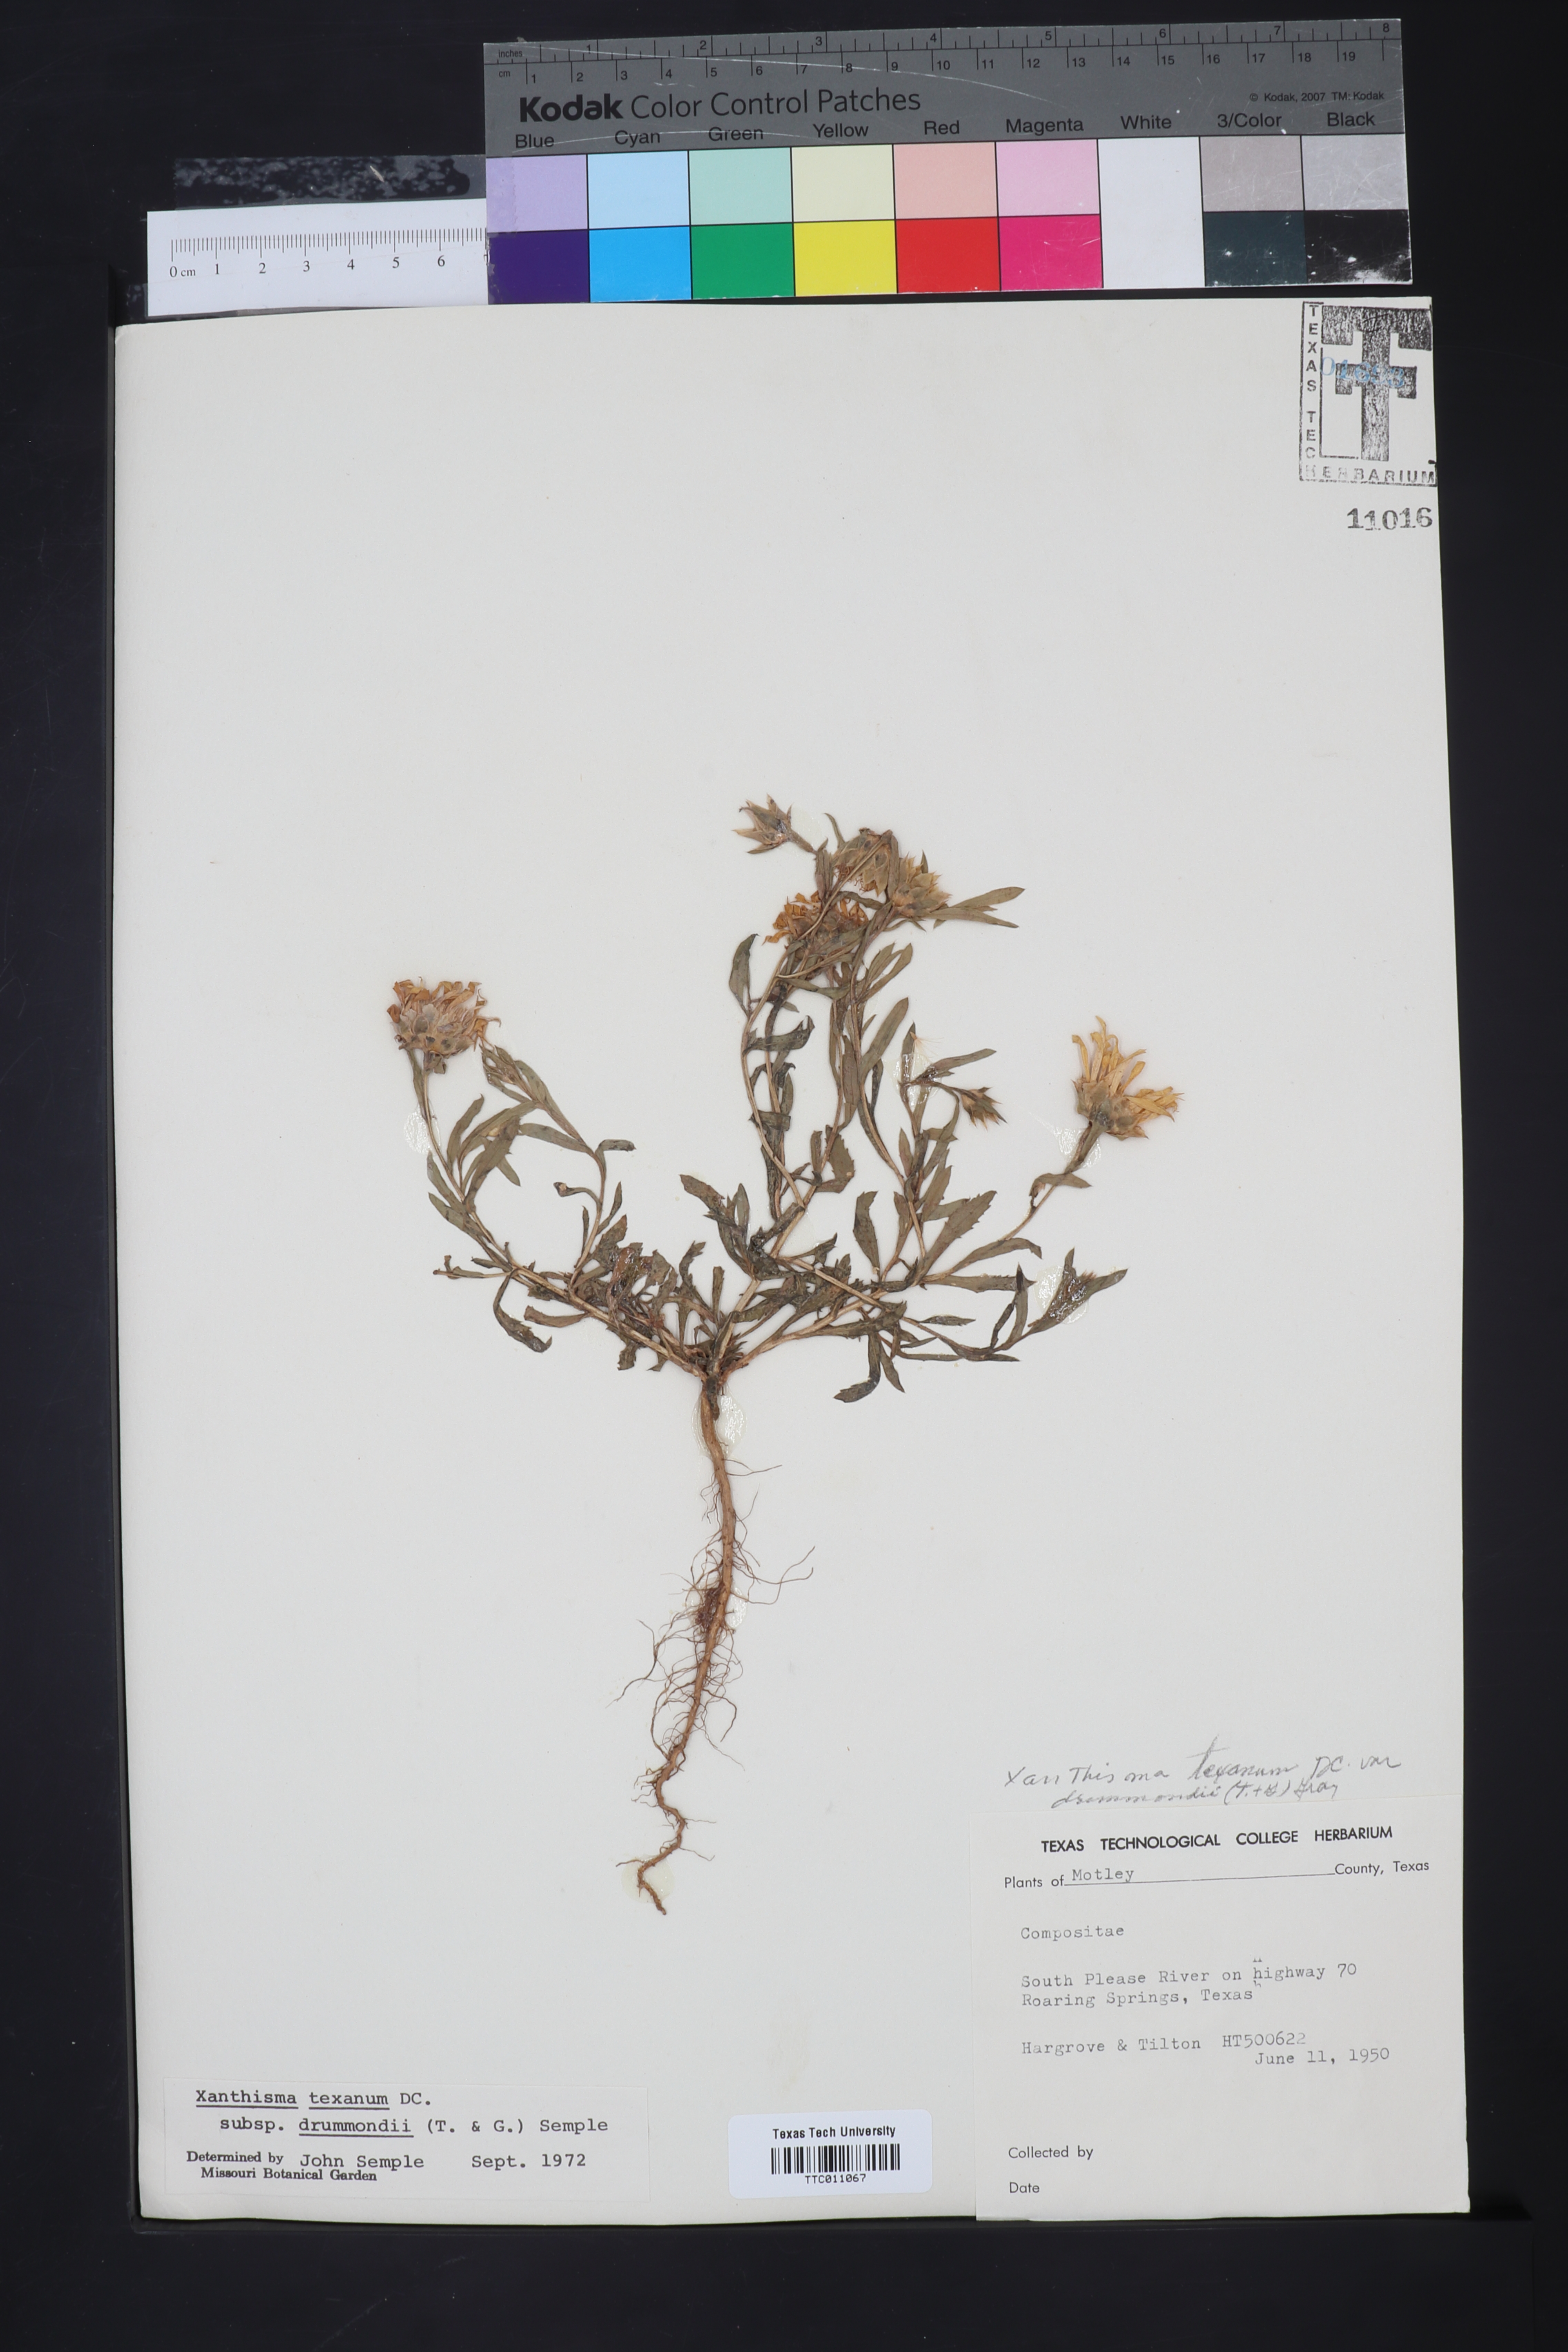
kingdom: Plantae
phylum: Tracheophyta
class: Magnoliopsida
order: Asterales
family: Asteraceae
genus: Xanthisma
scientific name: Xanthisma texanum
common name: Texas sleepy daisy
